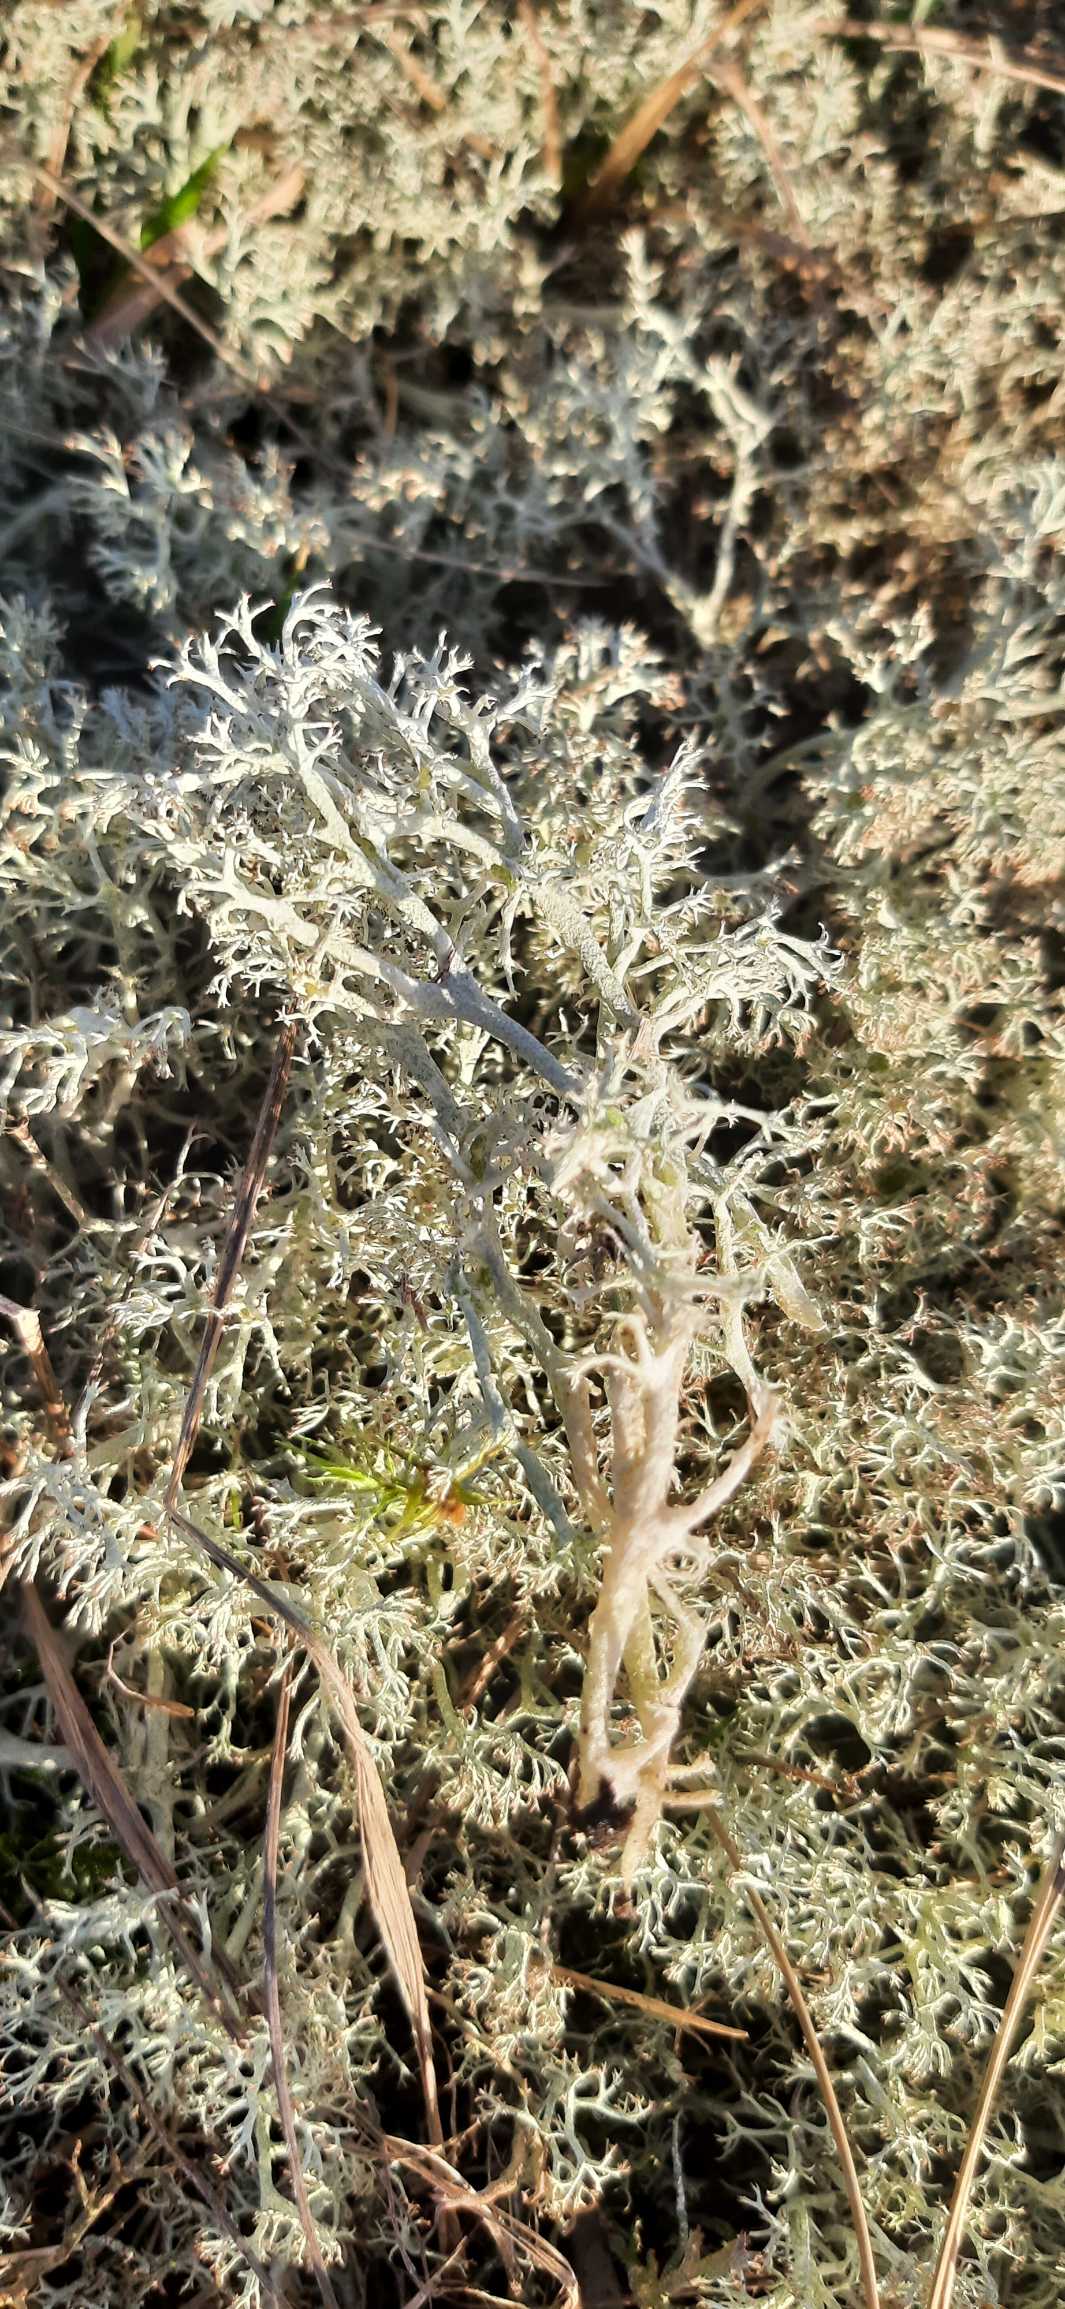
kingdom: Fungi
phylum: Ascomycota
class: Lecanoromycetes
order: Lecanorales
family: Cladoniaceae
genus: Cladina
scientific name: Cladina
